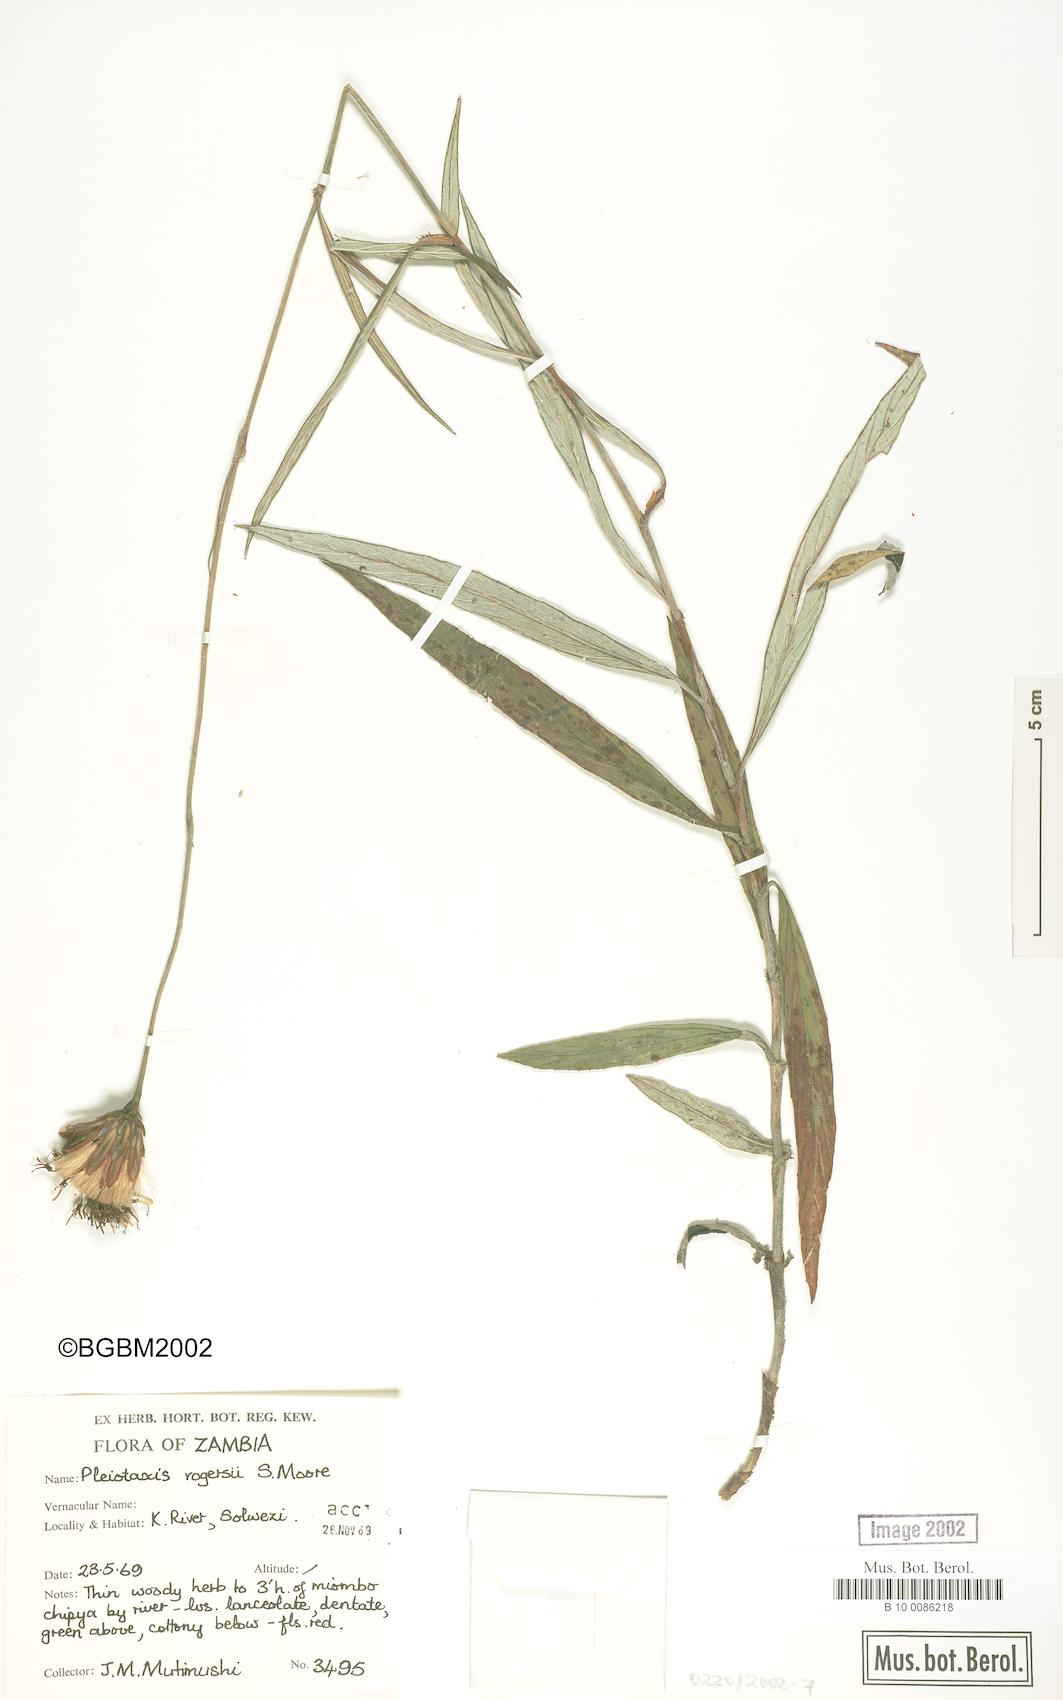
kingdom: Plantae
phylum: Tracheophyta
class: Magnoliopsida
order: Asterales
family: Asteraceae
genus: Pleiotaxis
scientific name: Pleiotaxis rogersii
